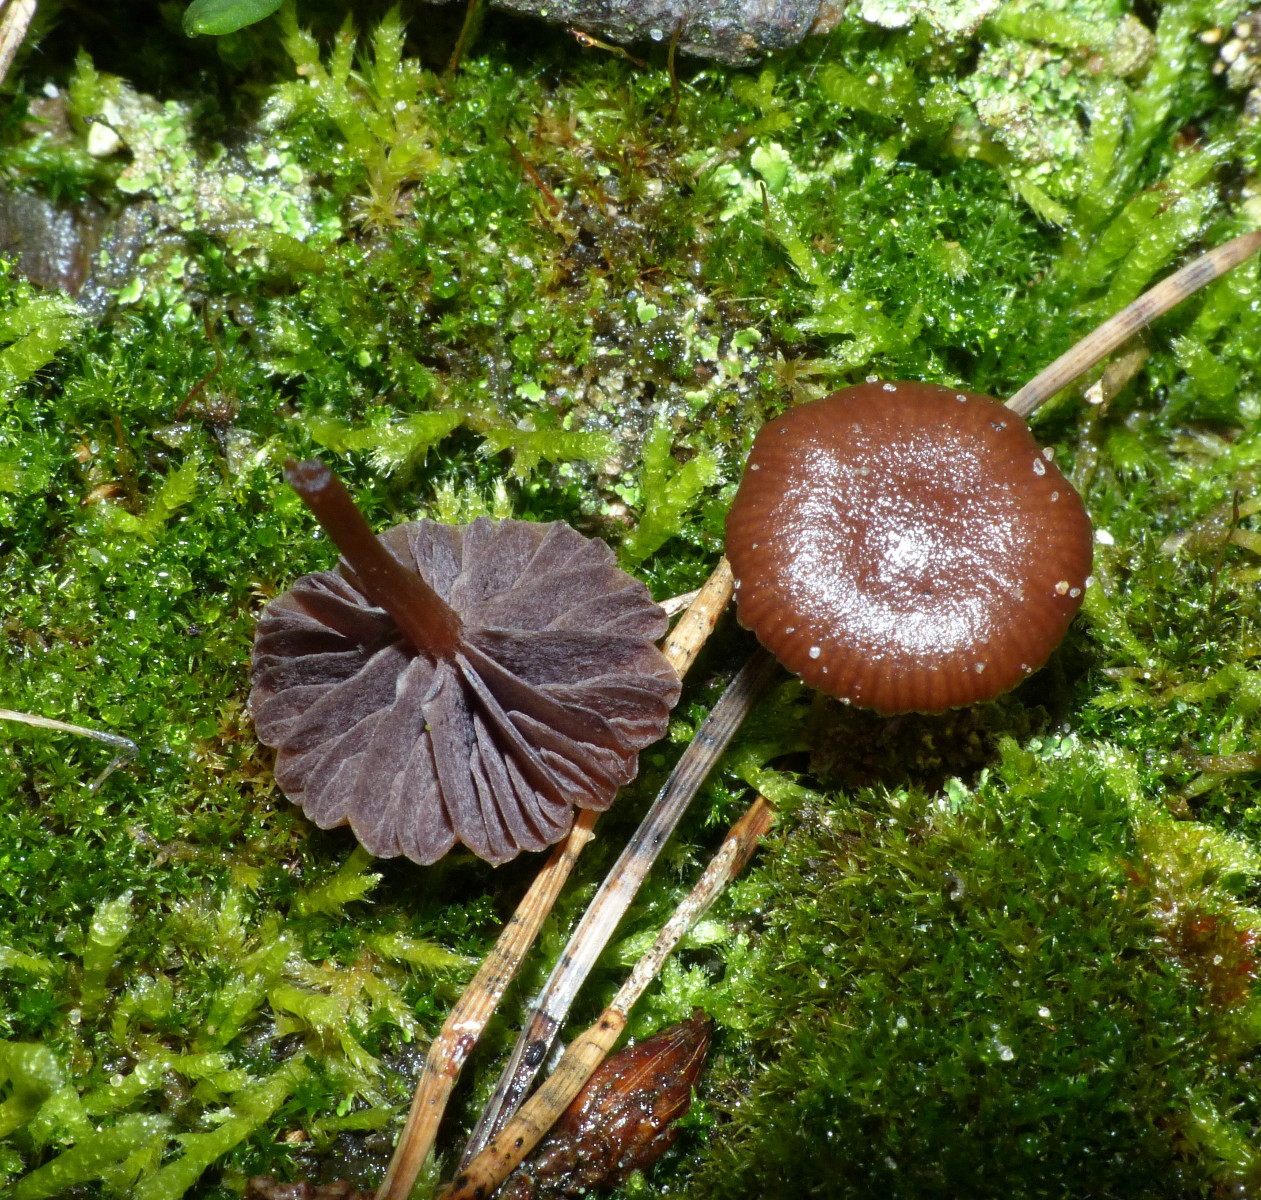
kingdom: Fungi
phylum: Basidiomycota
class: Agaricomycetes
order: Agaricales
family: Strophariaceae
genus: Deconica
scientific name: Deconica montana
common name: rødbrun stråhat
